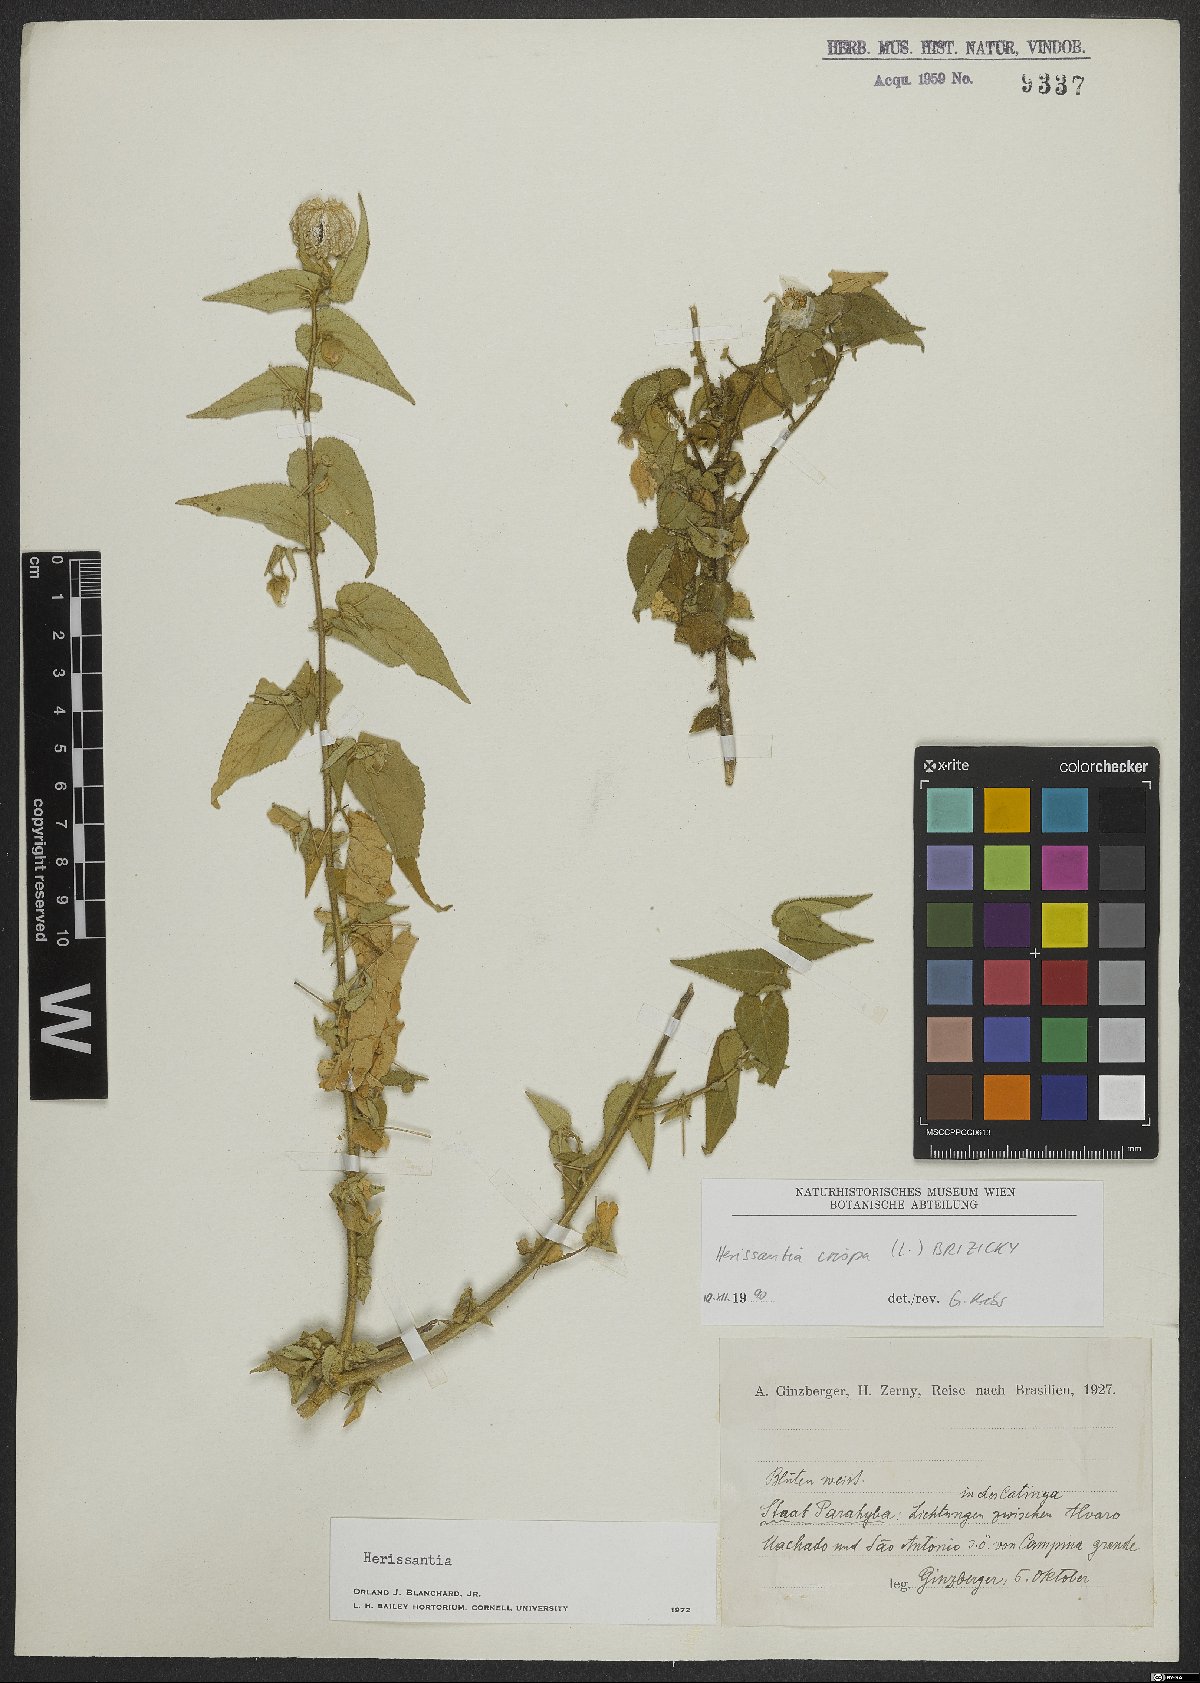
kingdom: Plantae
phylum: Tracheophyta
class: Magnoliopsida
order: Malvales
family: Malvaceae
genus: Herissantia
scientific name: Herissantia crispa
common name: Bladdermallow
